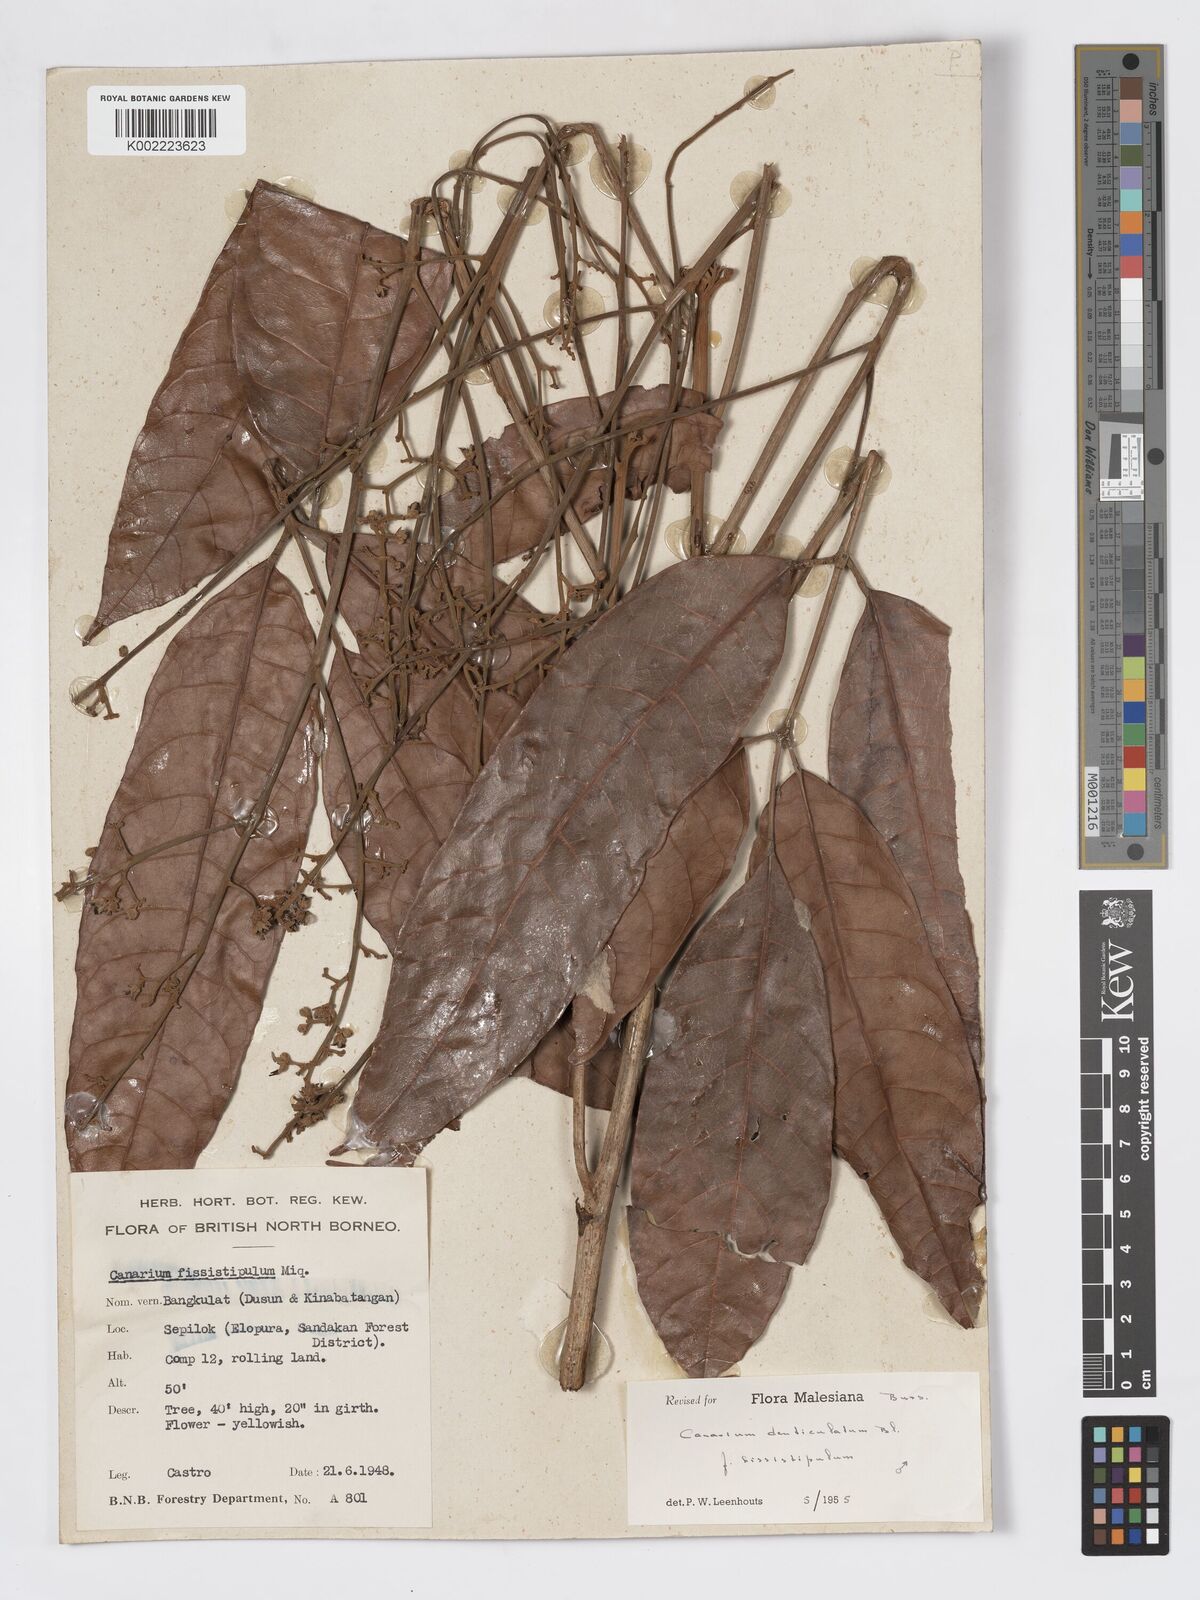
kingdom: Plantae
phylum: Tracheophyta
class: Magnoliopsida
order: Sapindales
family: Burseraceae
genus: Canarium
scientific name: Canarium denticulatum
